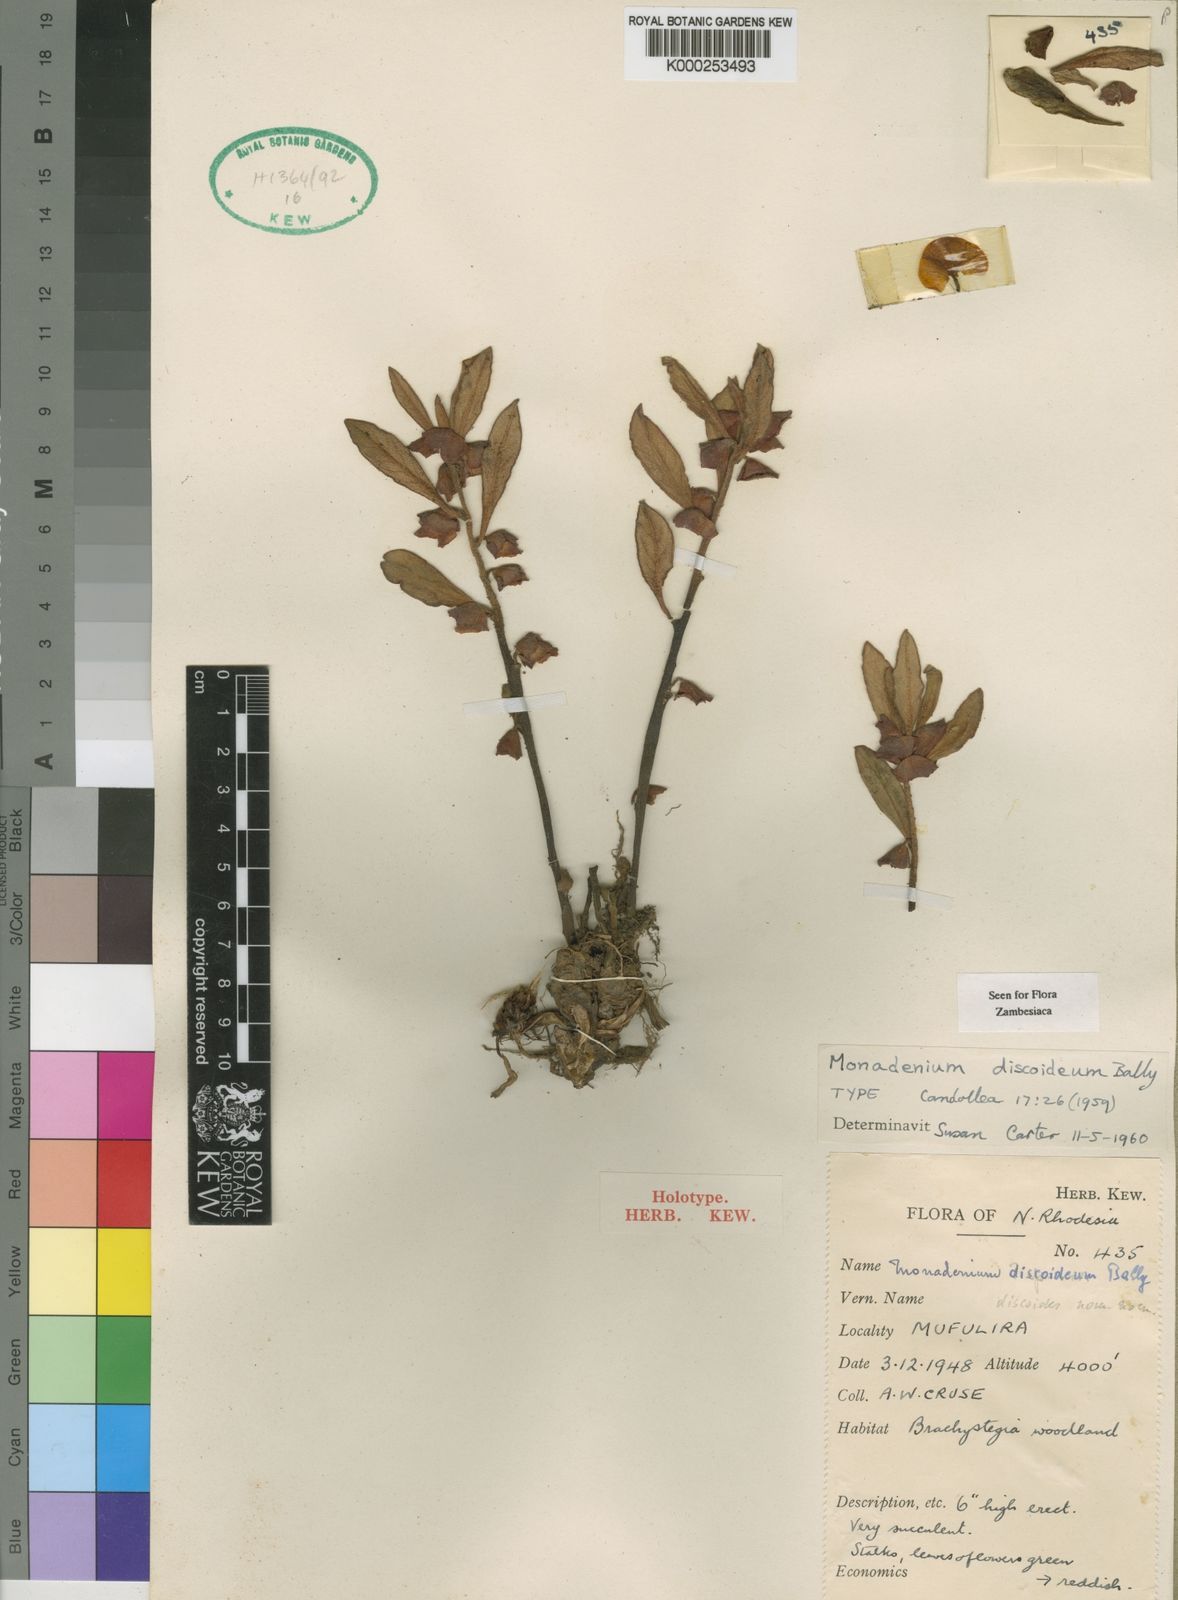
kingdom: Plantae
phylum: Tracheophyta
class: Magnoliopsida
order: Malpighiales
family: Euphorbiaceae
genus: Euphorbia
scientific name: Euphorbia discoidea
